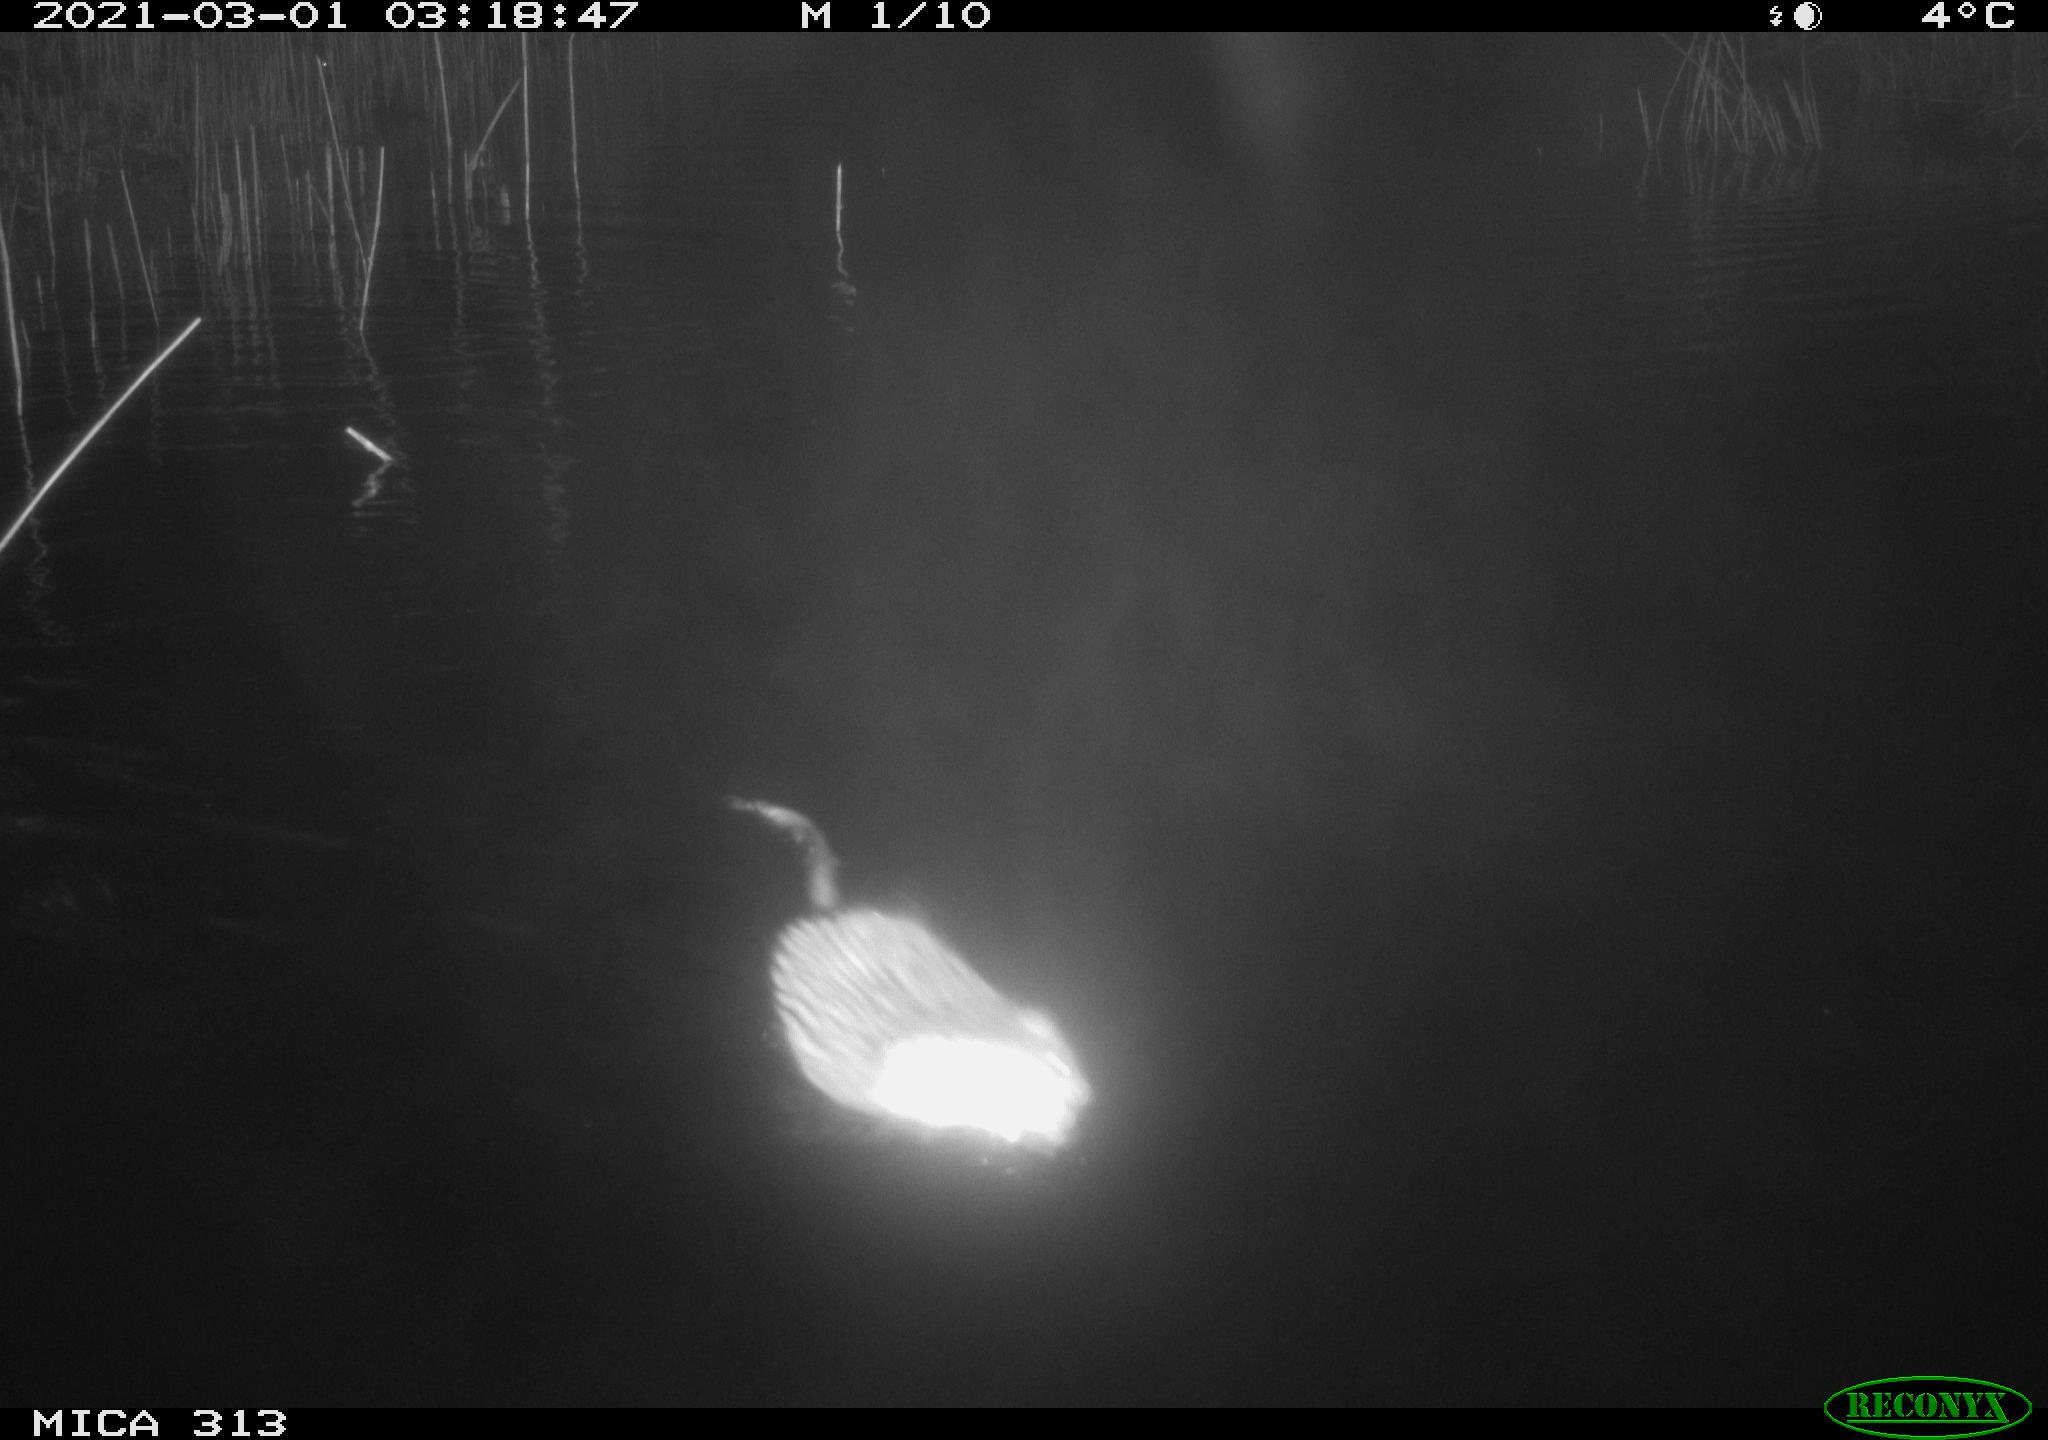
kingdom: Animalia
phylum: Chordata
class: Mammalia
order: Rodentia
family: Cricetidae
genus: Ondatra
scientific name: Ondatra zibethicus
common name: Muskrat
